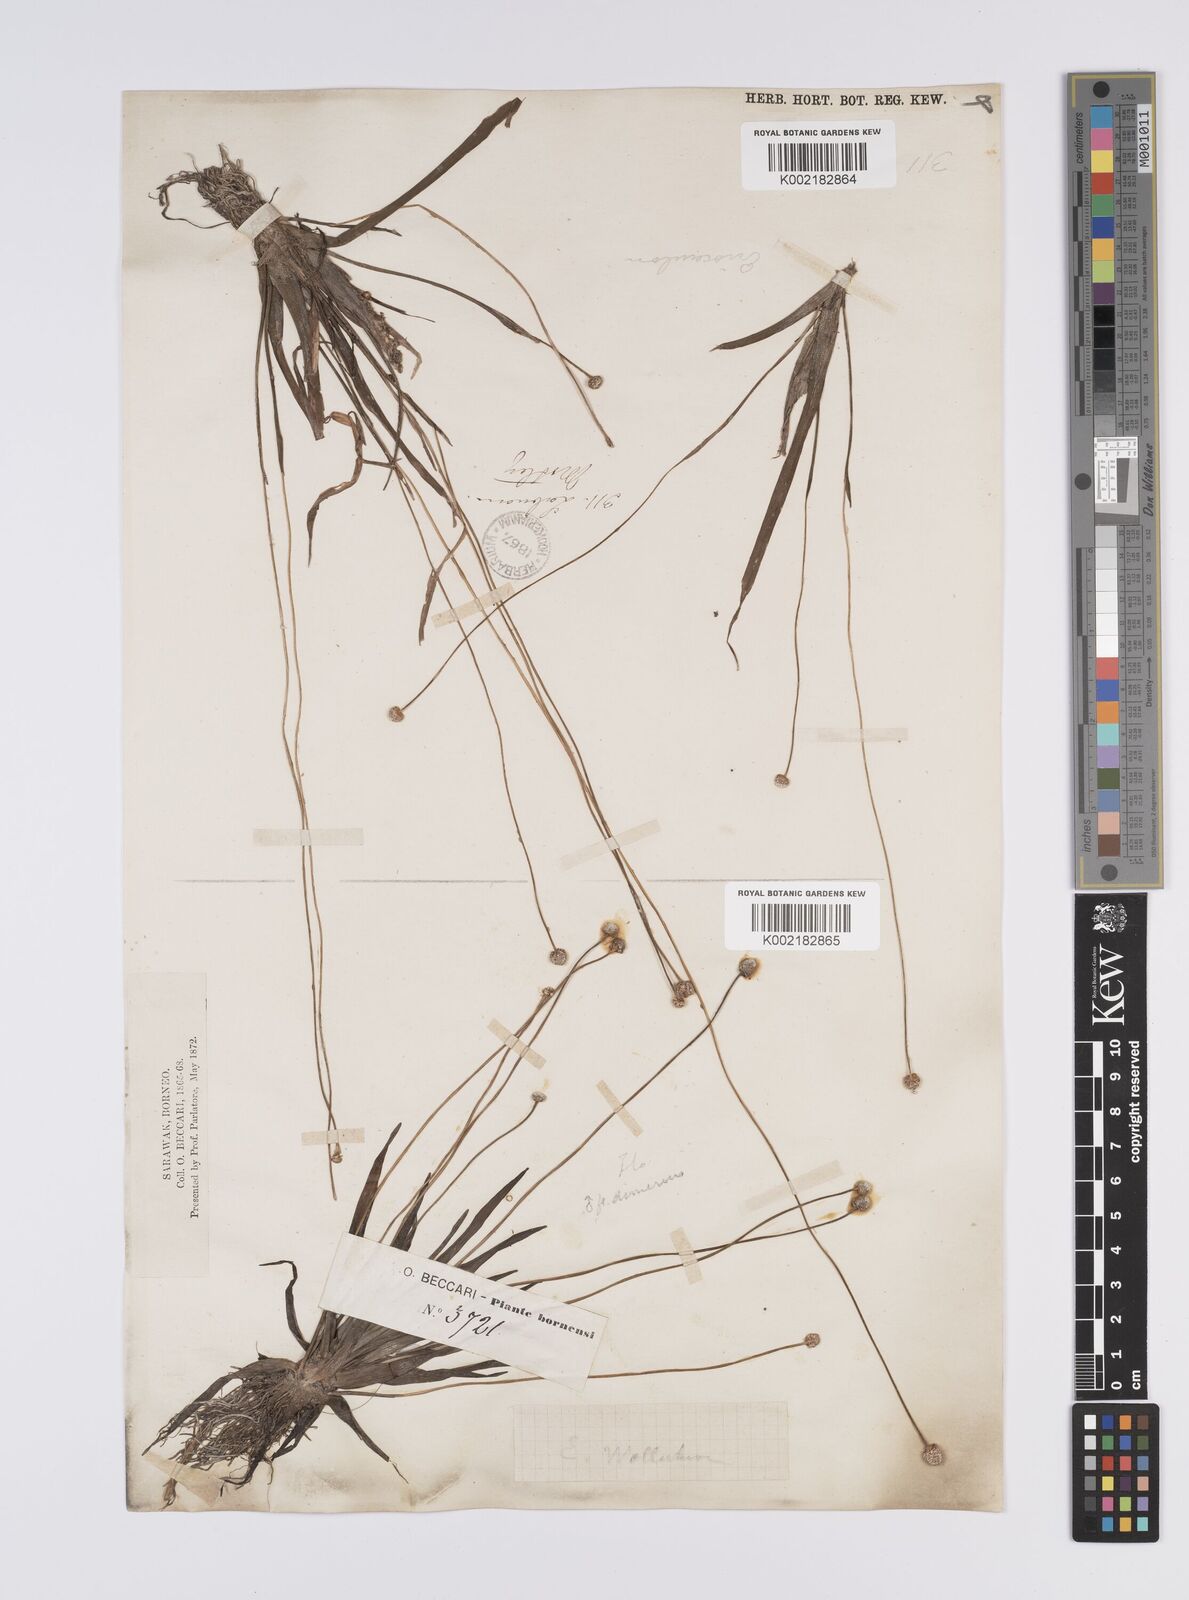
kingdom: Plantae
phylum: Tracheophyta
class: Liliopsida
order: Poales
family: Eriocaulaceae
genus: Eriocaulon
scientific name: Eriocaulon willdenovianum
